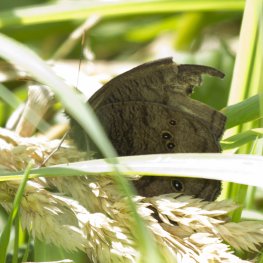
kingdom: Animalia
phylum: Arthropoda
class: Insecta
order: Lepidoptera
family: Nymphalidae
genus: Cercyonis
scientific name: Cercyonis pegala
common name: Common Wood-Nymph
